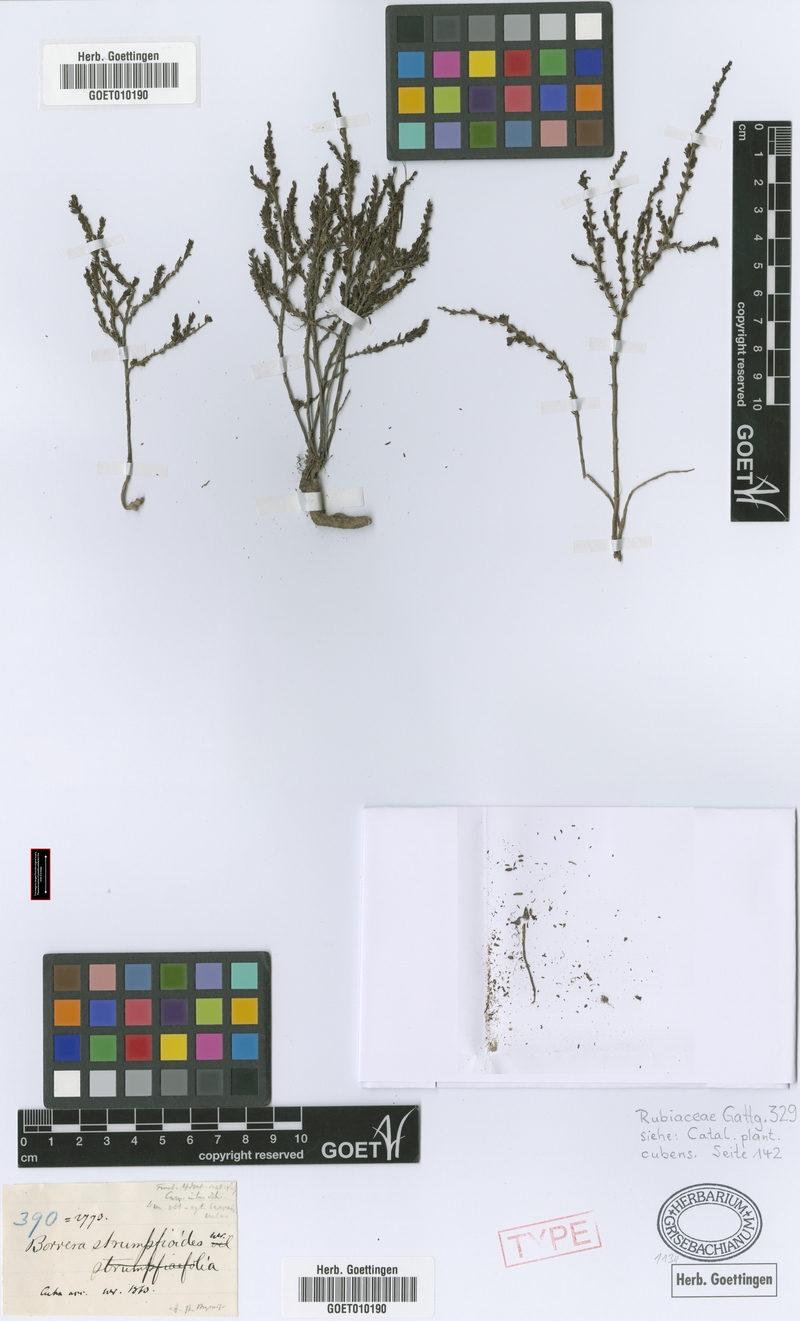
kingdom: Plantae
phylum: Tracheophyta
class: Magnoliopsida
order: Gentianales
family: Rubiaceae
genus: Spermacoce
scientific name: Spermacoce strumpfioides
